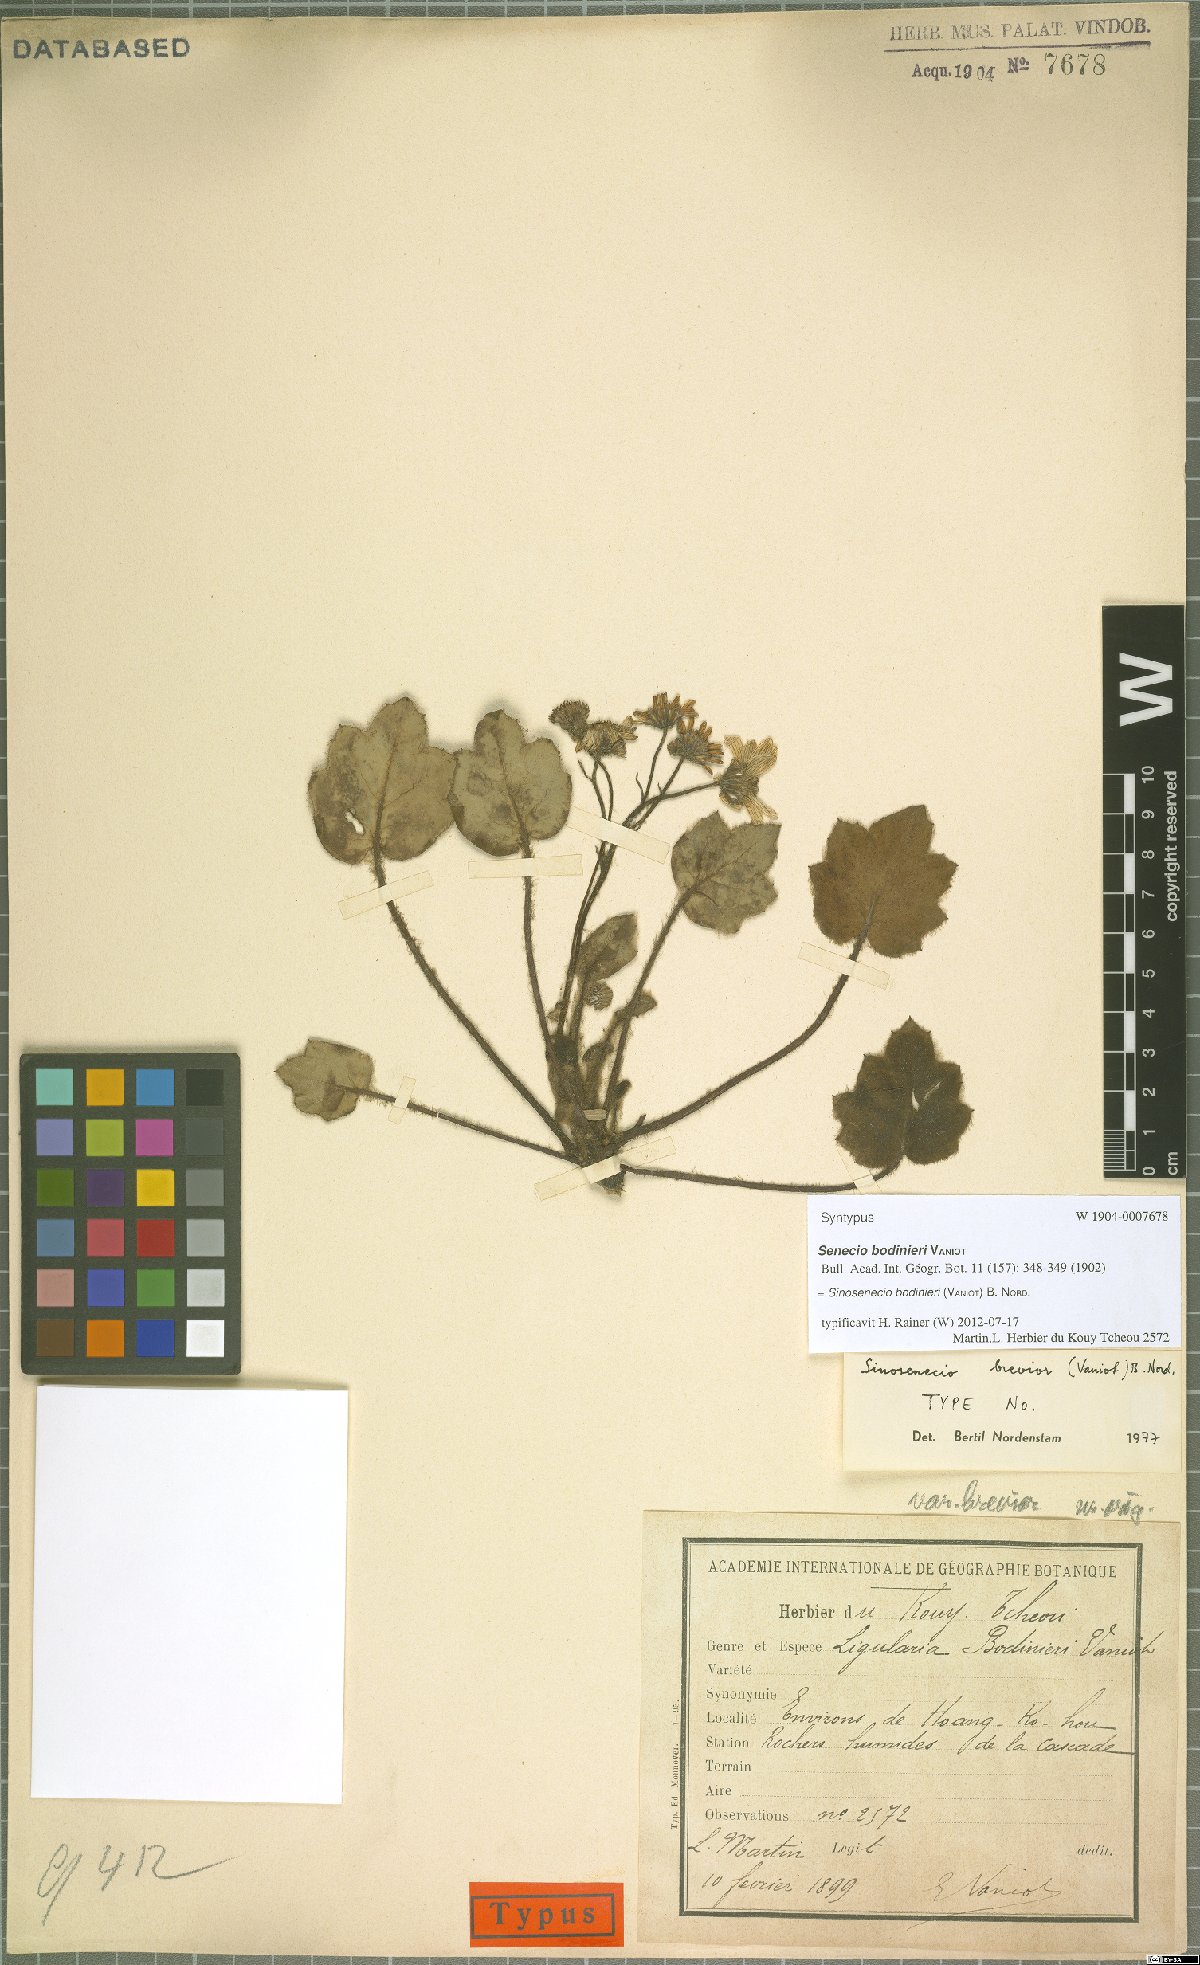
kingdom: Plantae
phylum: Tracheophyta
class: Magnoliopsida
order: Asterales
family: Asteraceae
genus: Sinosenecio
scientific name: Sinosenecio bodinieri
